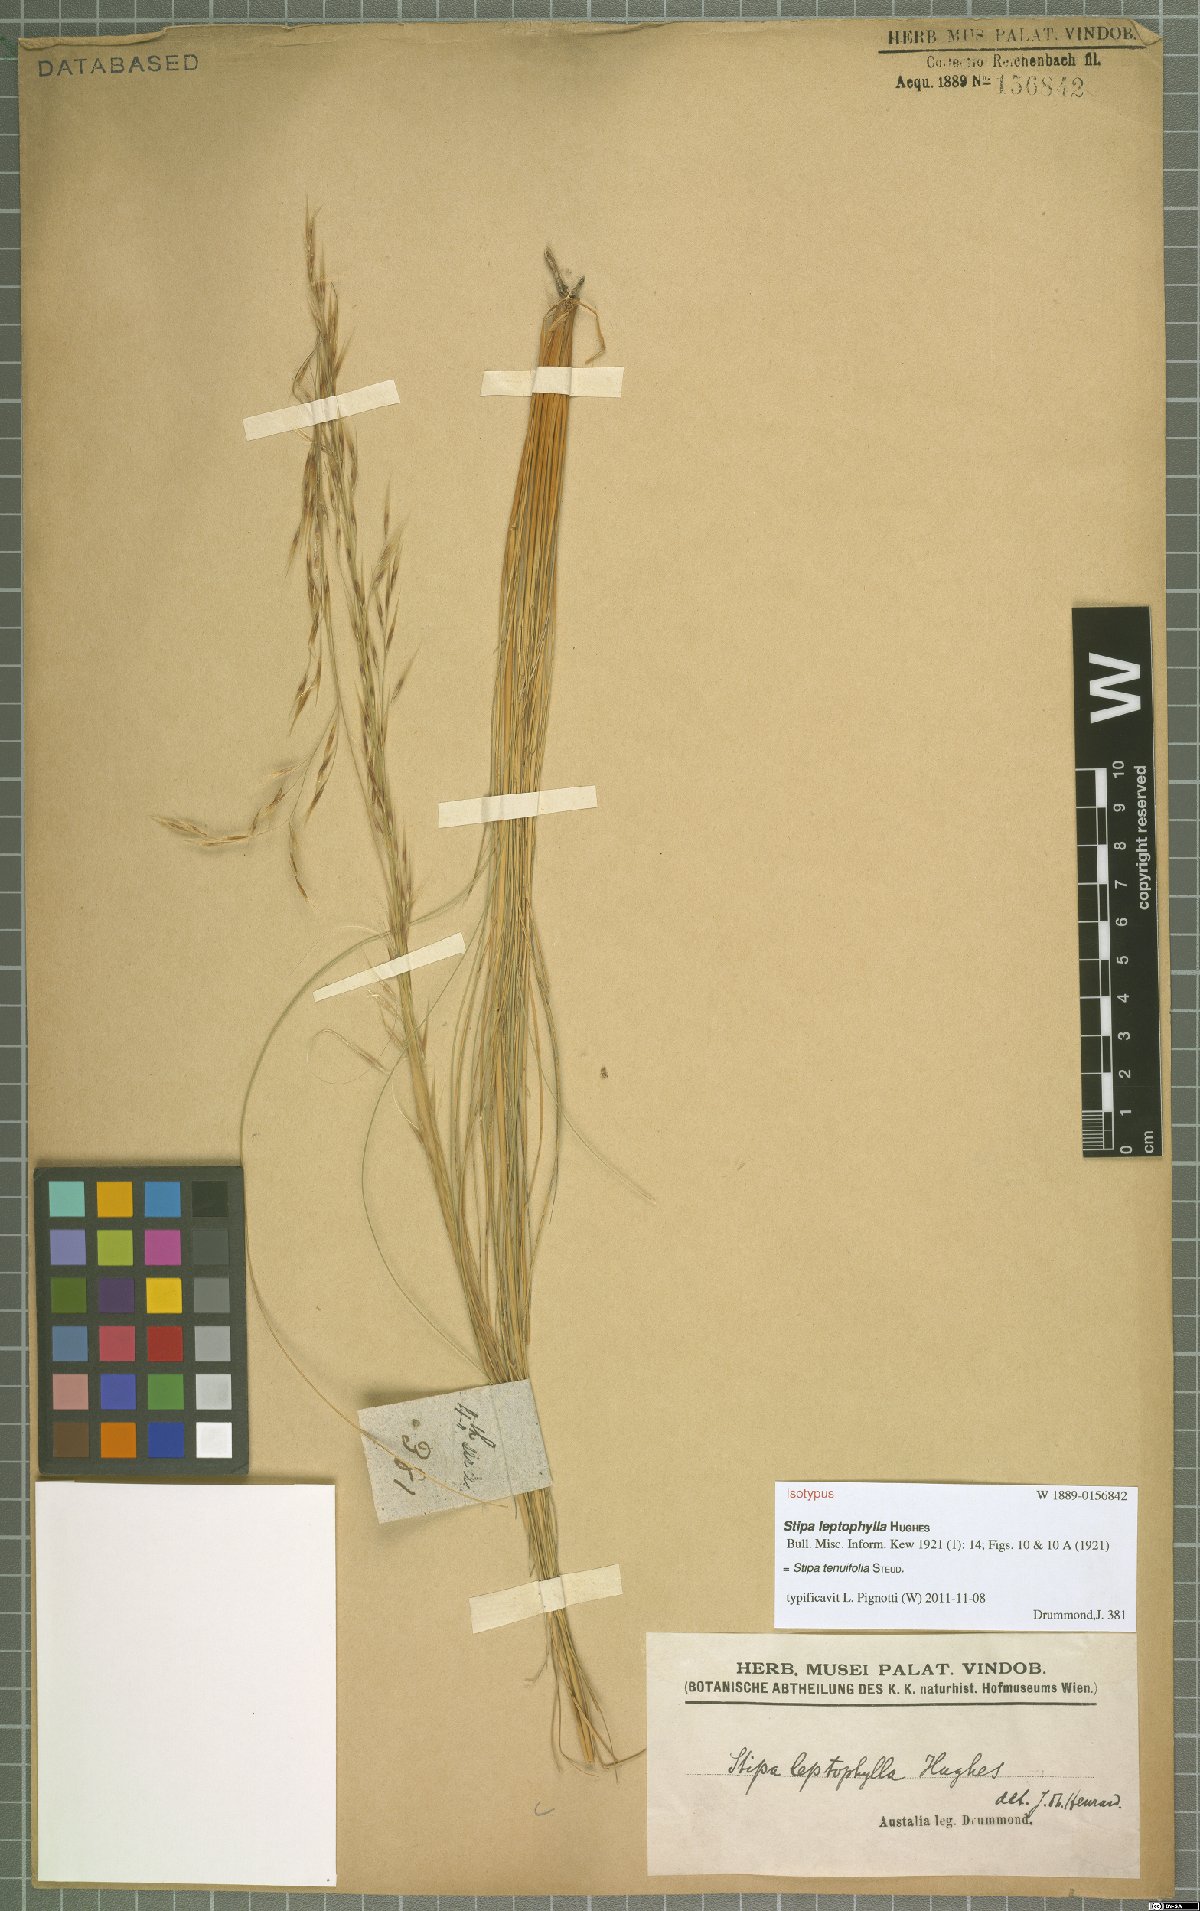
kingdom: Plantae
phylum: Tracheophyta
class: Liliopsida
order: Poales
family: Poaceae
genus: Austrostipa
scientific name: Austrostipa scabra
